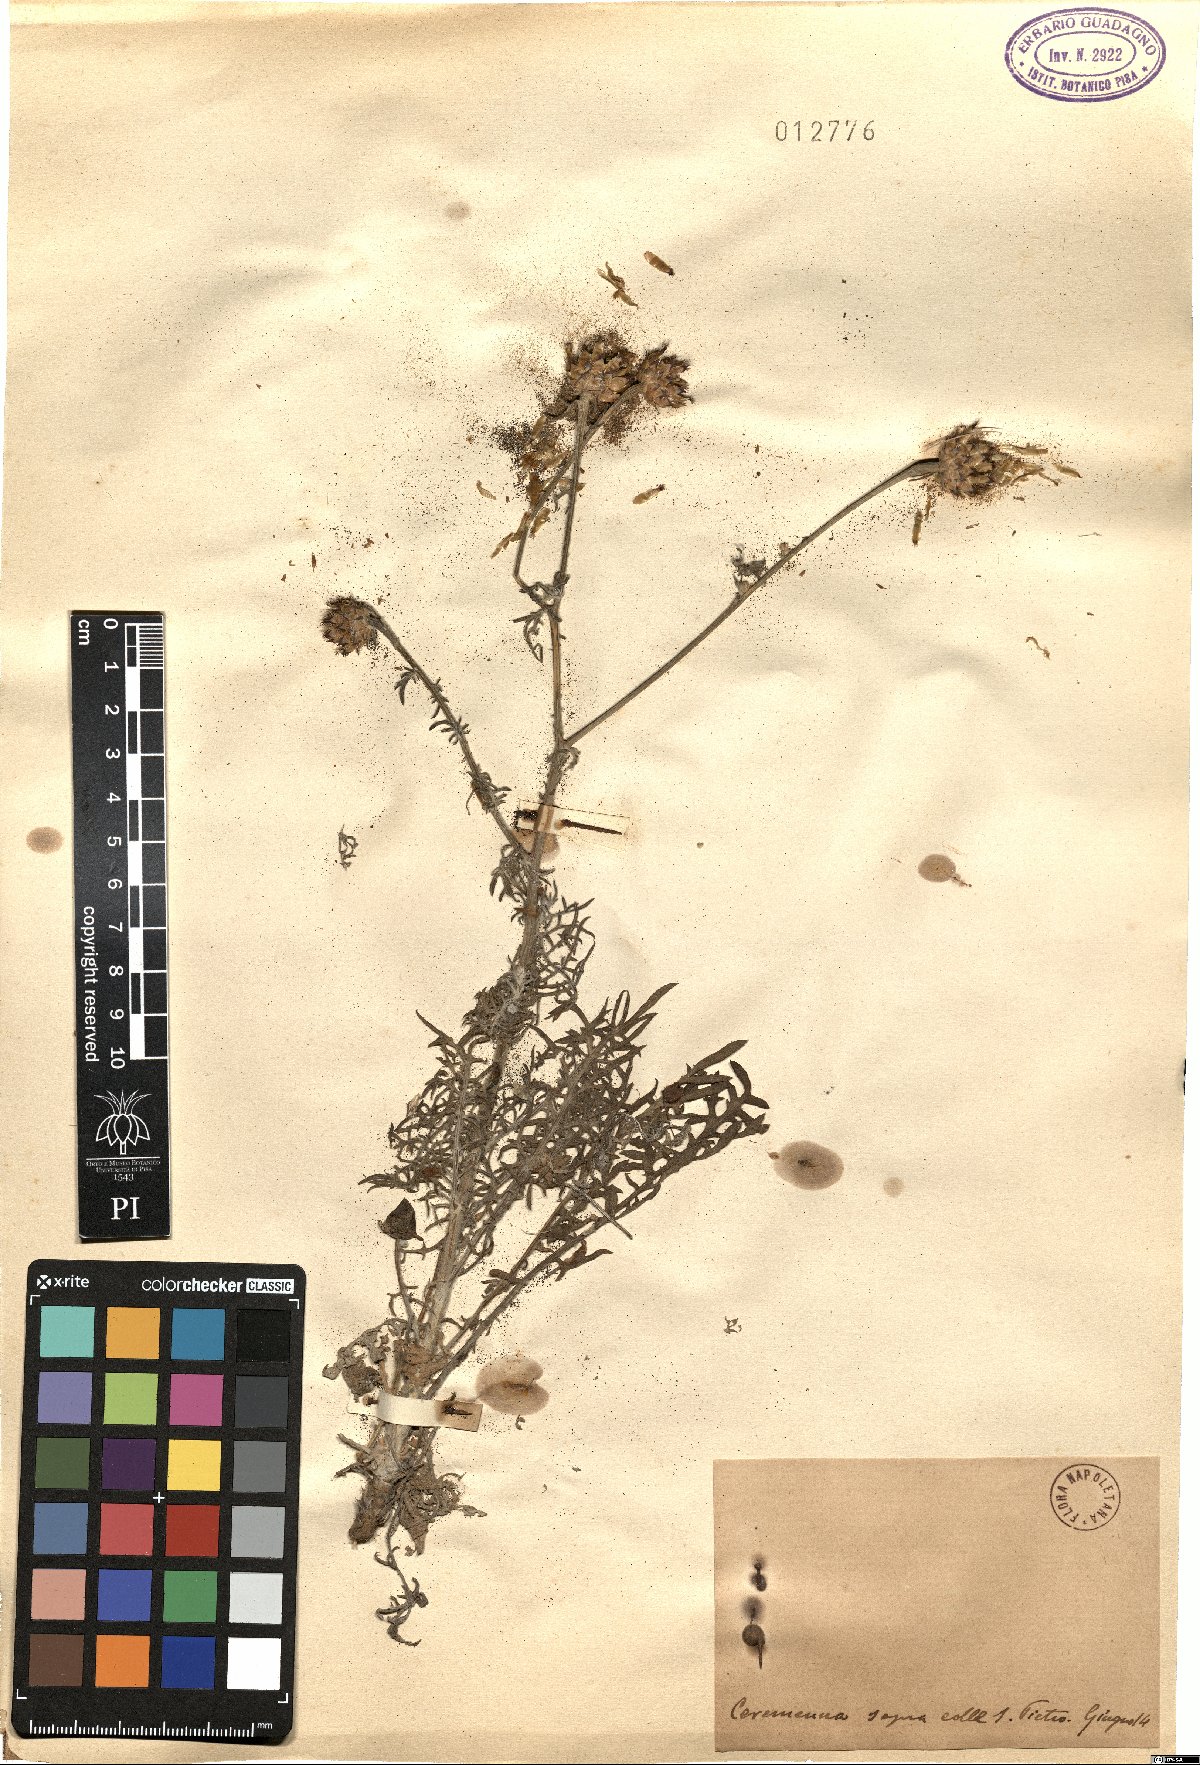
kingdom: Plantae
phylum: Tracheophyta
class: Magnoliopsida
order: Asterales
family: Asteraceae
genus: Centaurea
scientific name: Centaurea
